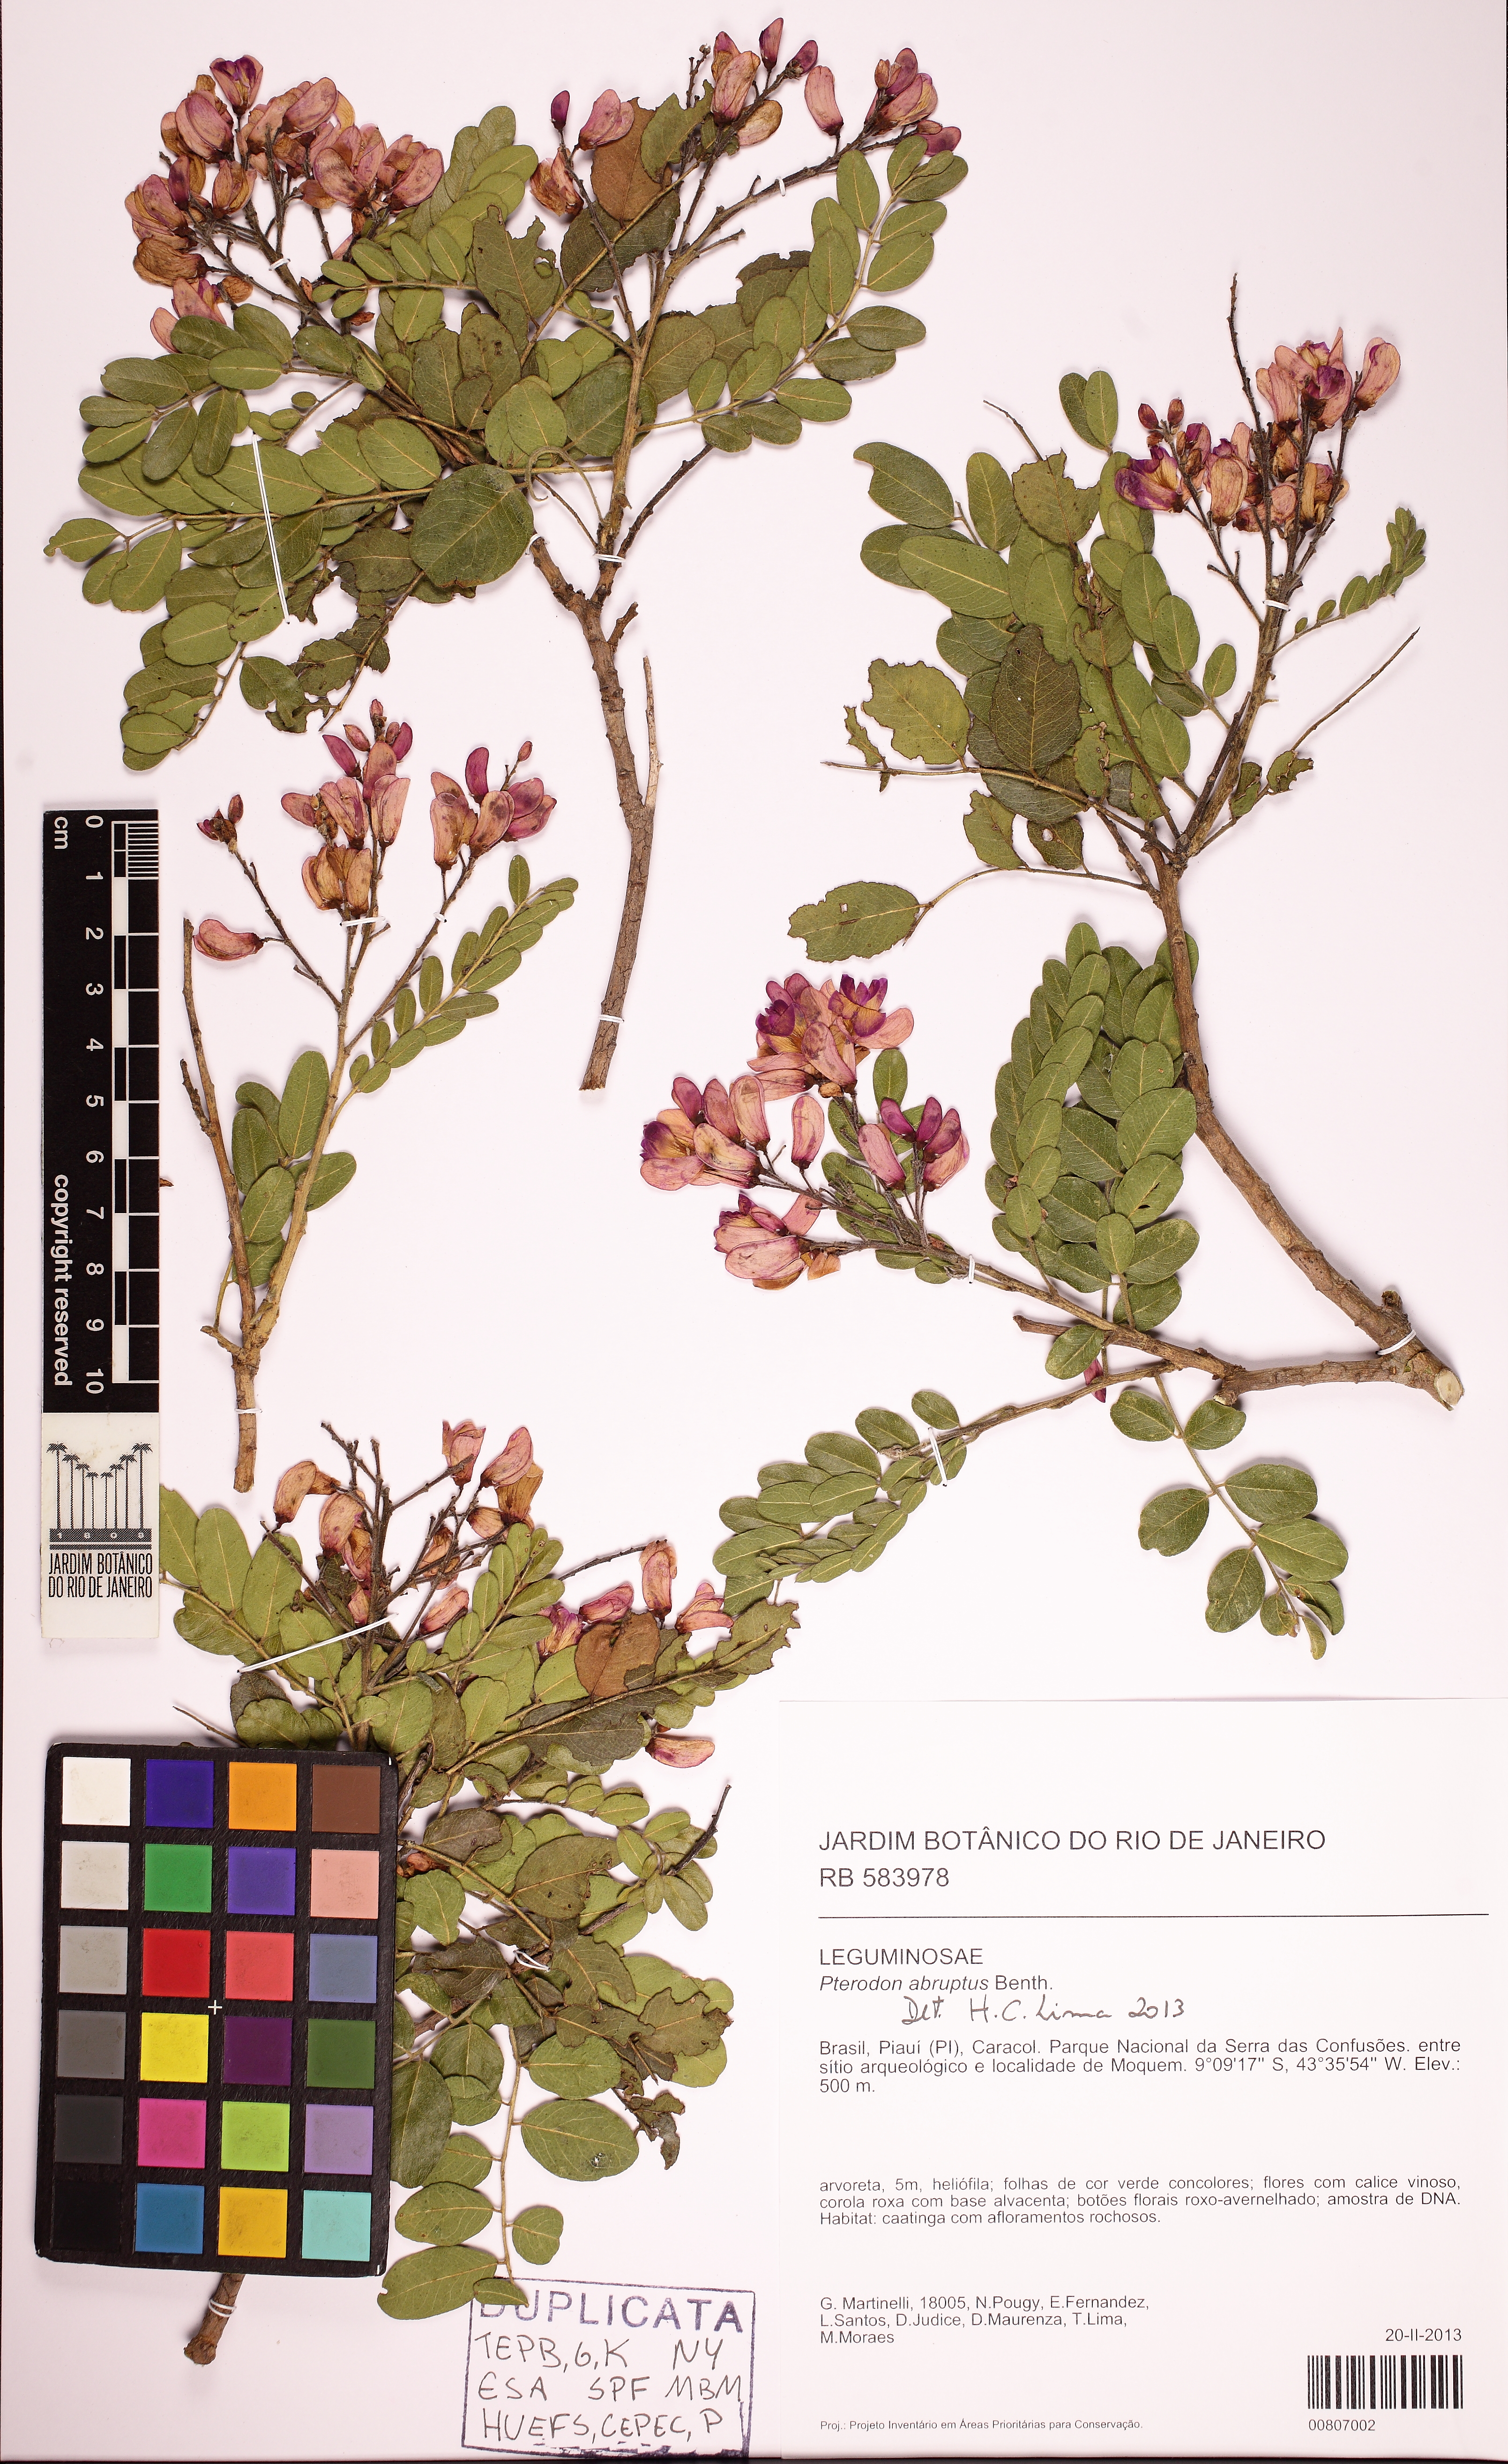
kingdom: Plantae
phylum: Tracheophyta
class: Magnoliopsida
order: Fabales
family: Fabaceae
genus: Pterodon
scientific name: Pterodon abruptus
